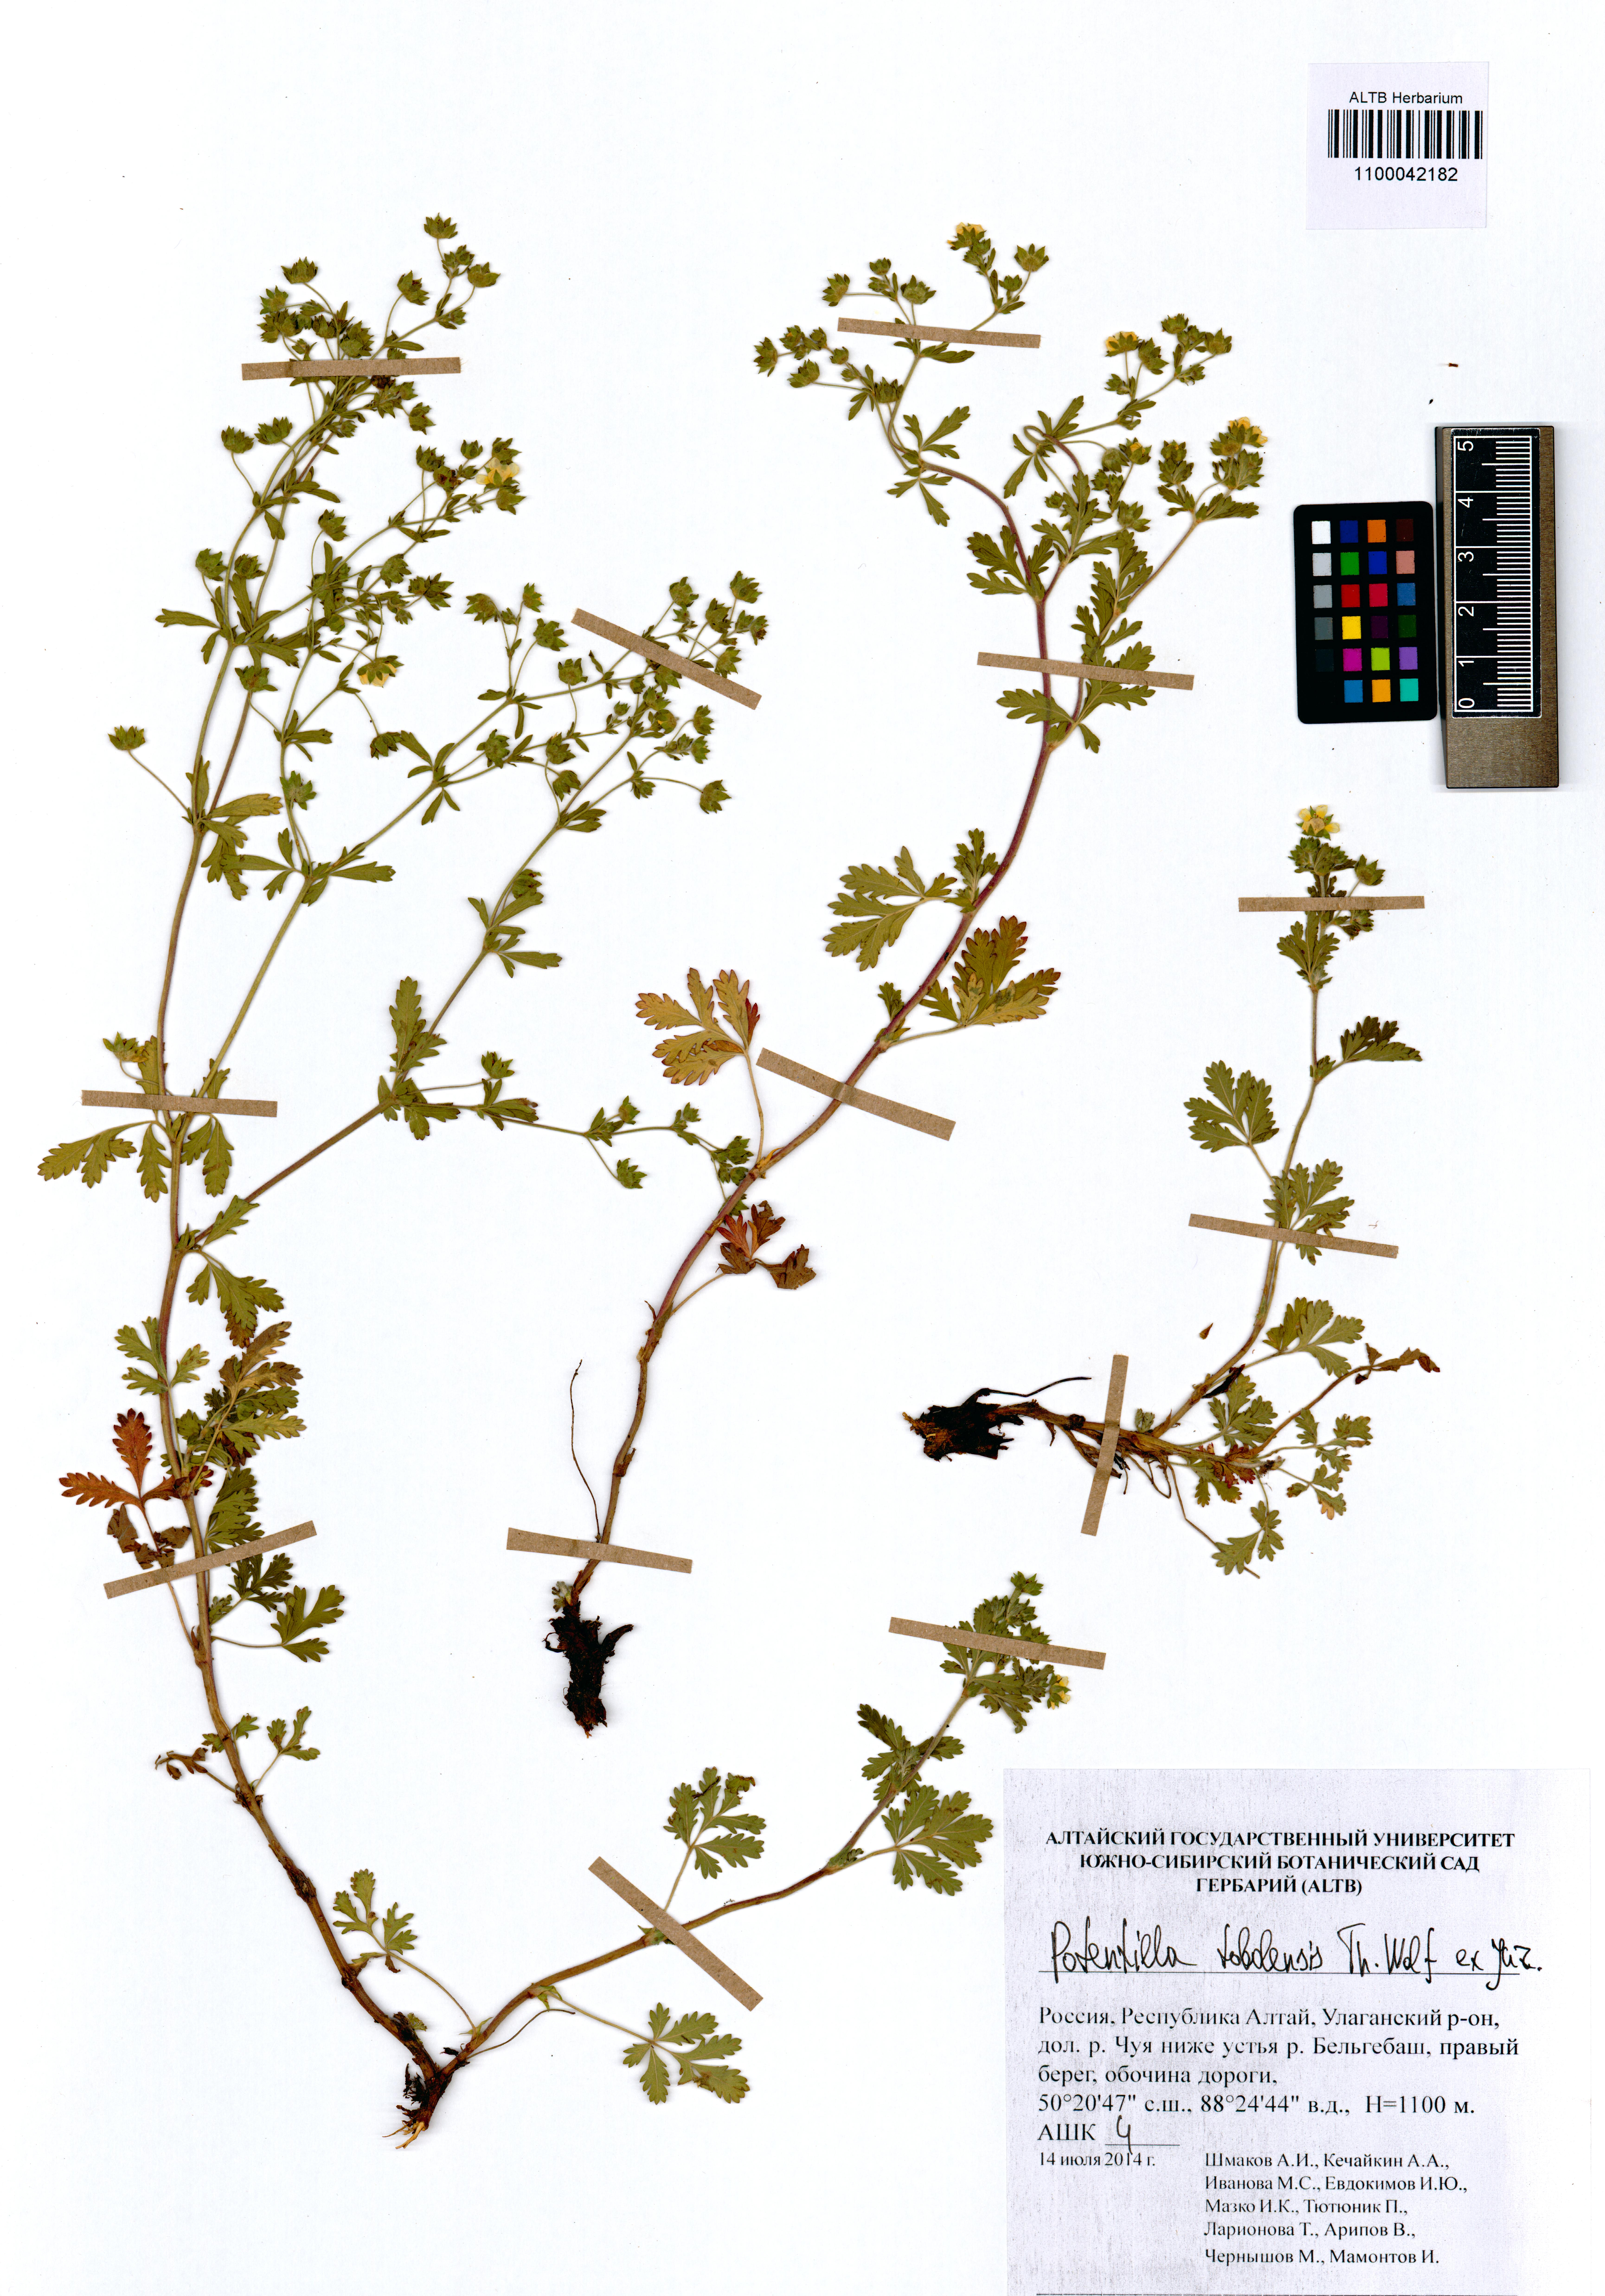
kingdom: Plantae
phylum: Tracheophyta
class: Magnoliopsida
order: Rosales
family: Rosaceae
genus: Potentilla
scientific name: Potentilla tobolensis
